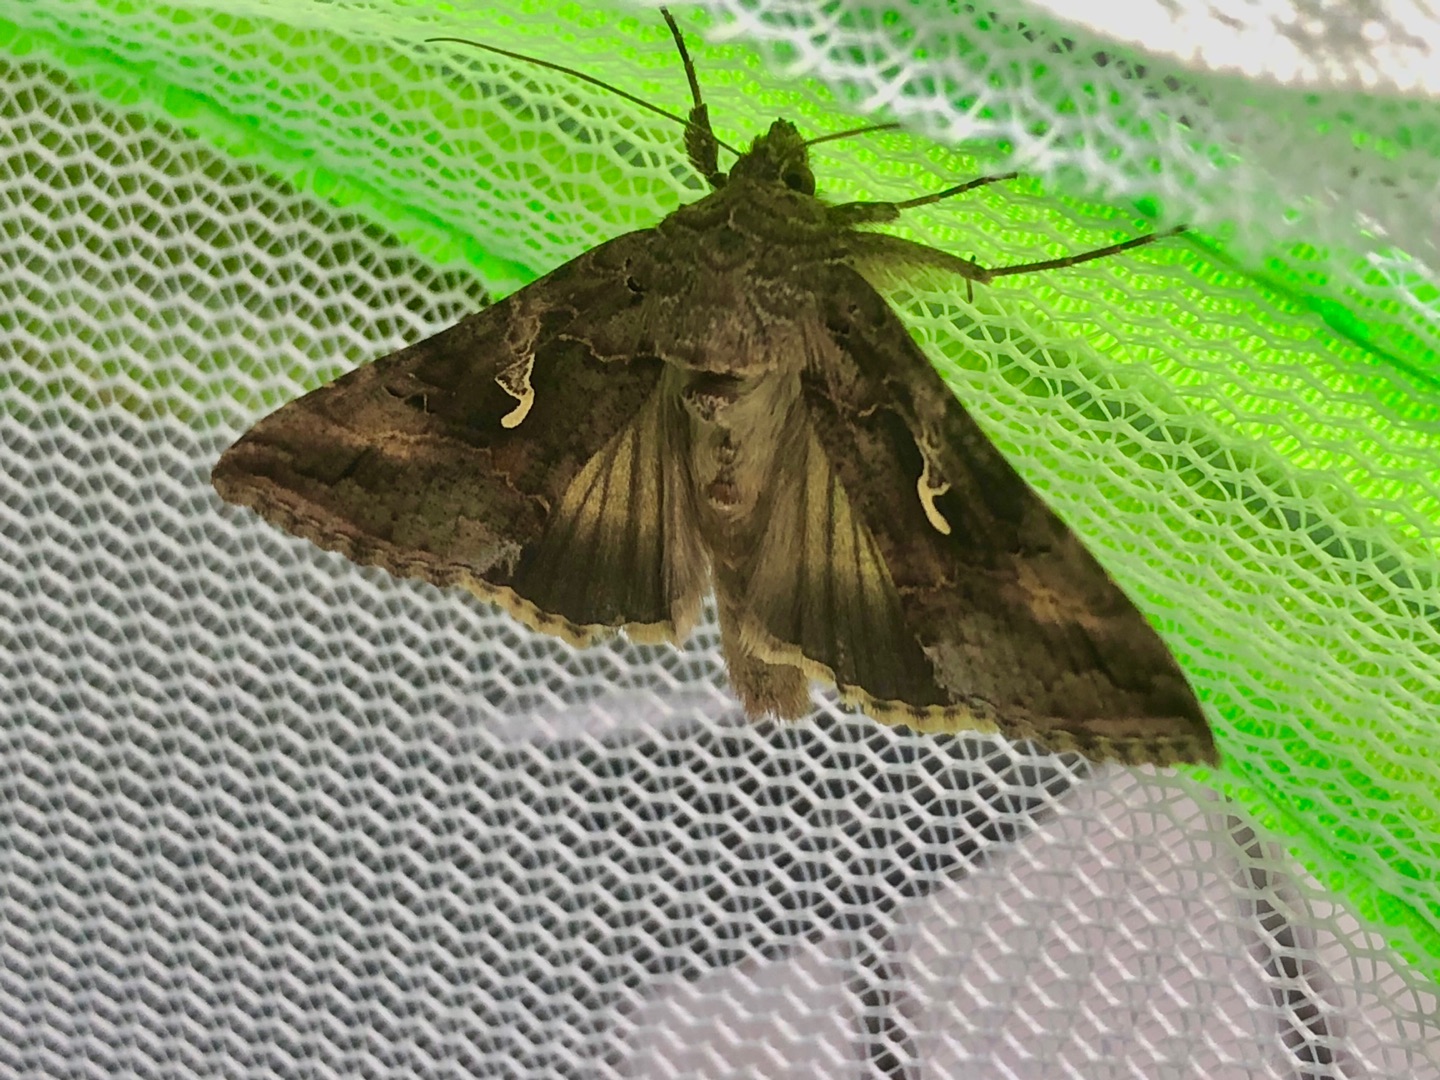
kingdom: Animalia
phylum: Arthropoda
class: Insecta
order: Lepidoptera
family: Noctuidae
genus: Autographa
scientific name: Autographa gamma
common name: Gammaugle
